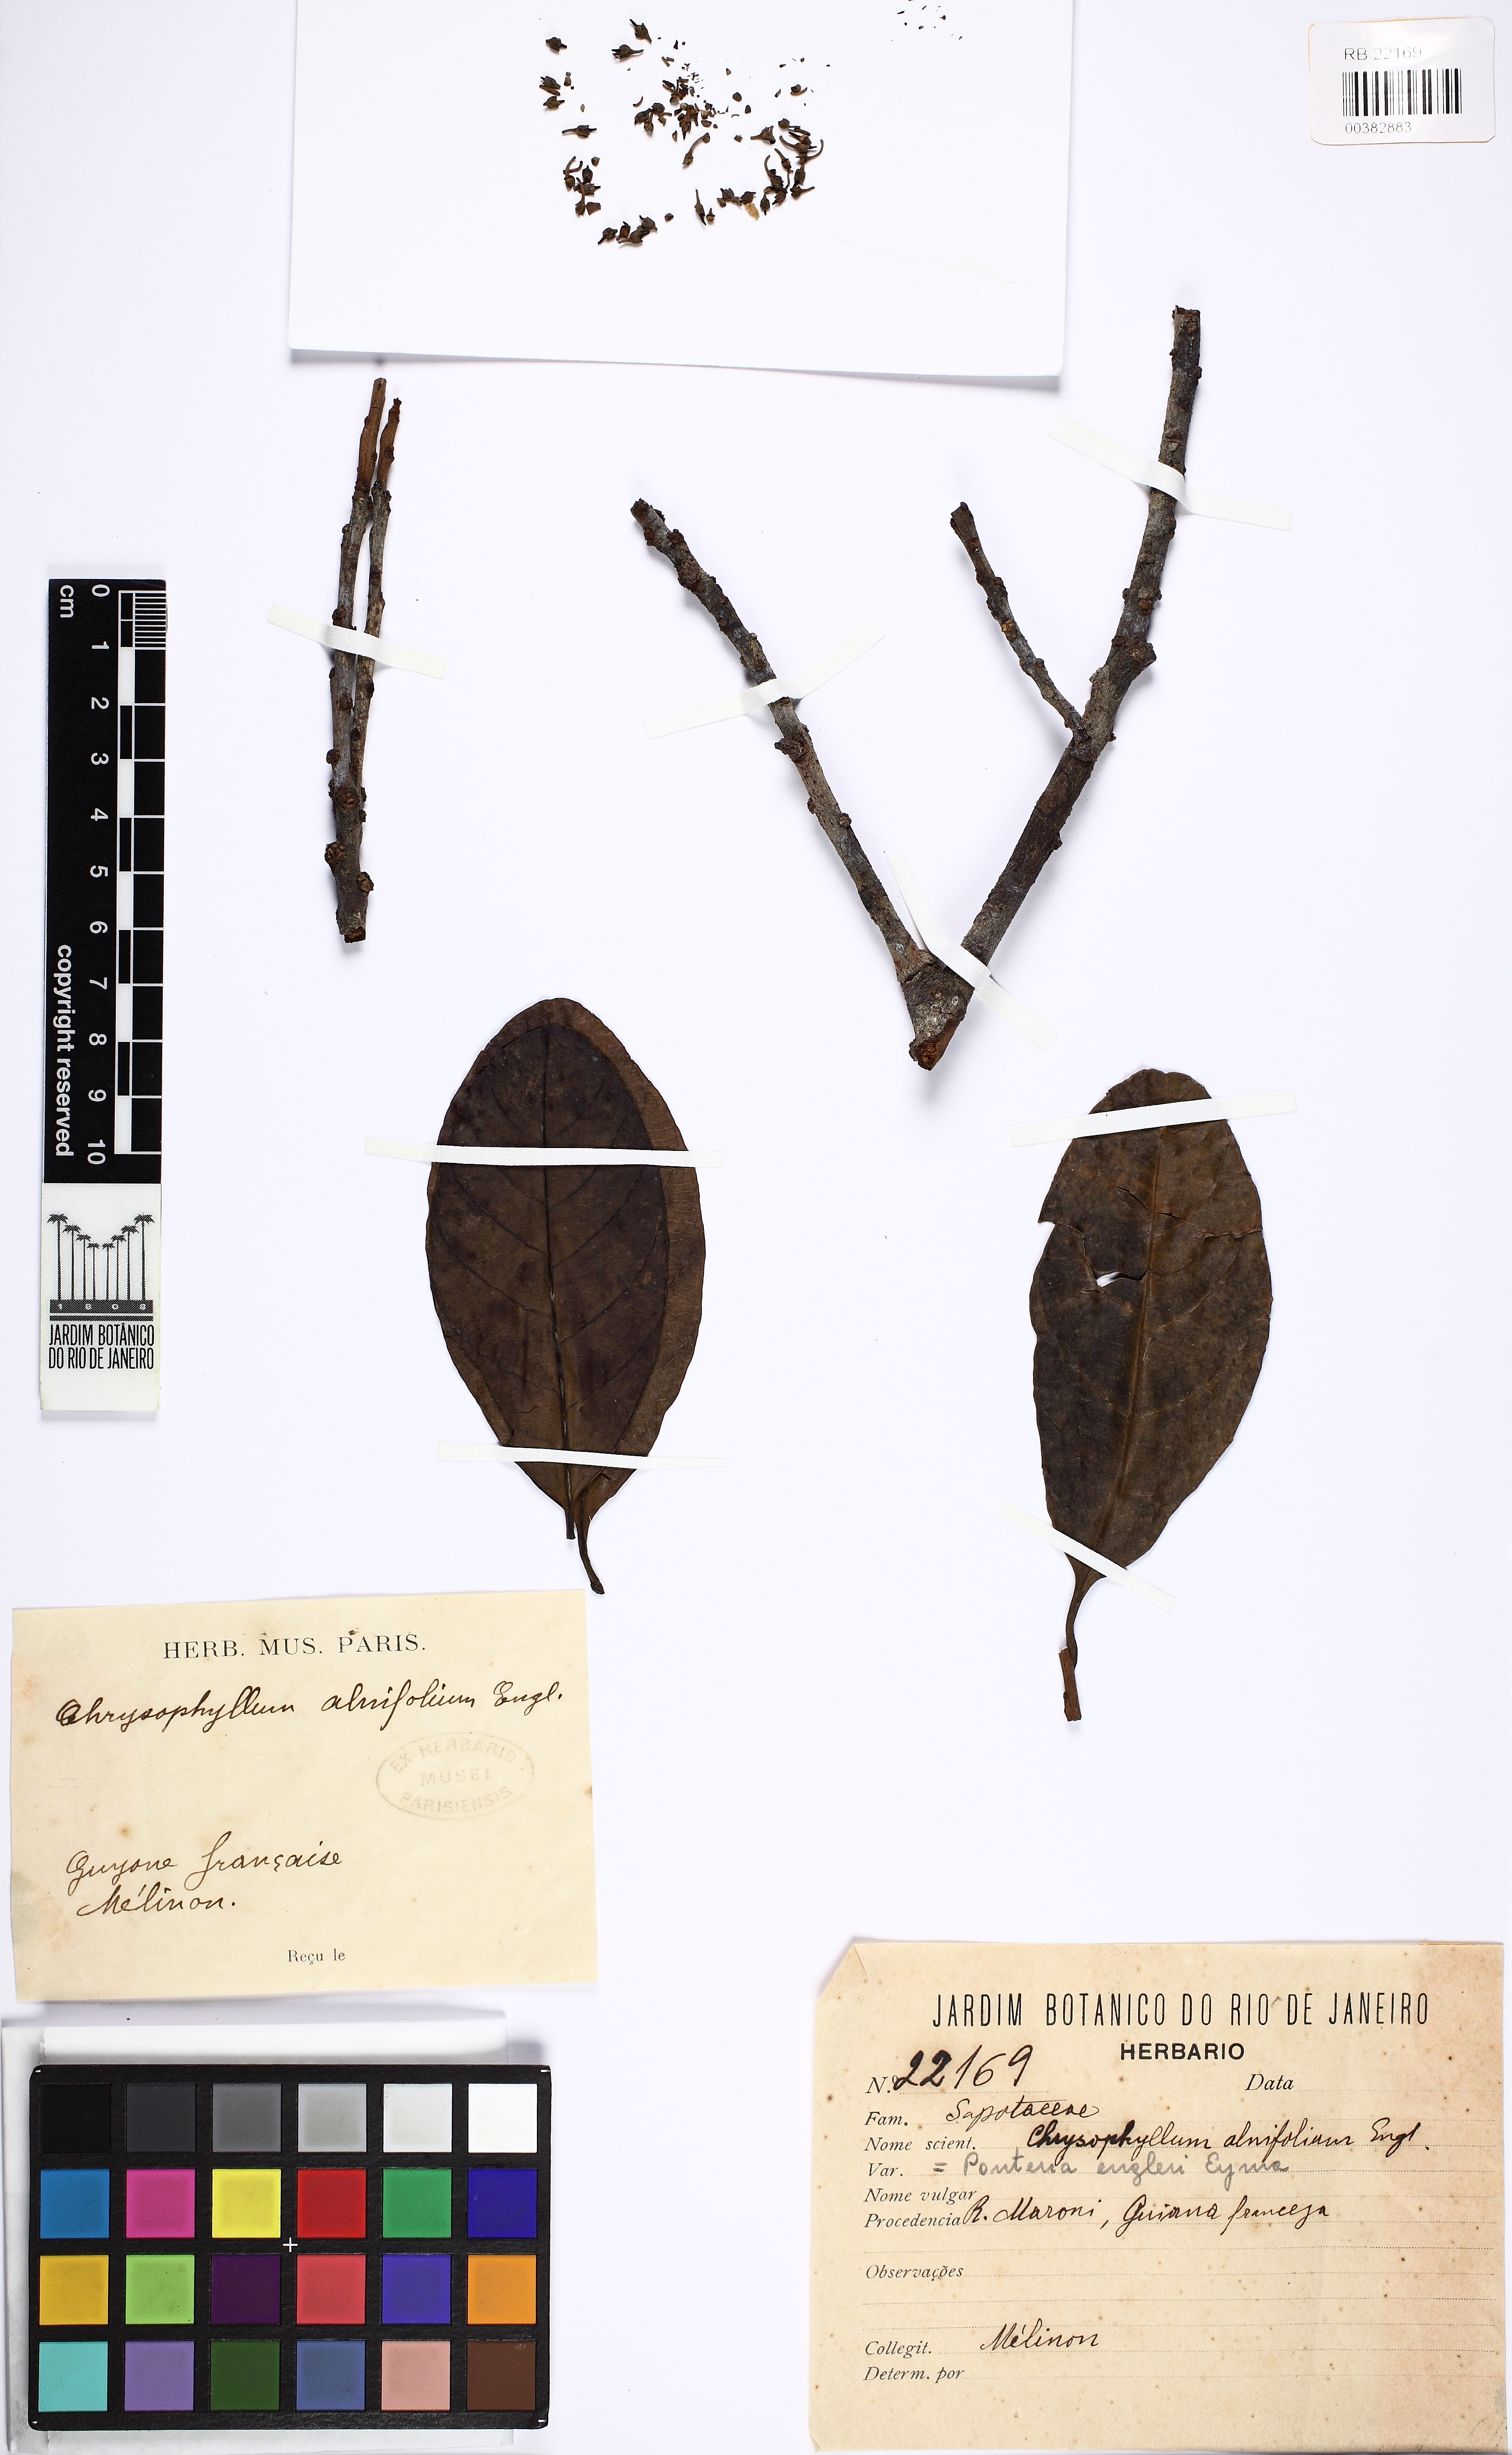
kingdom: Plantae
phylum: Tracheophyta
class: Magnoliopsida
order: Ericales
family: Sapotaceae
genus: Pouteria
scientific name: Pouteria engleri
